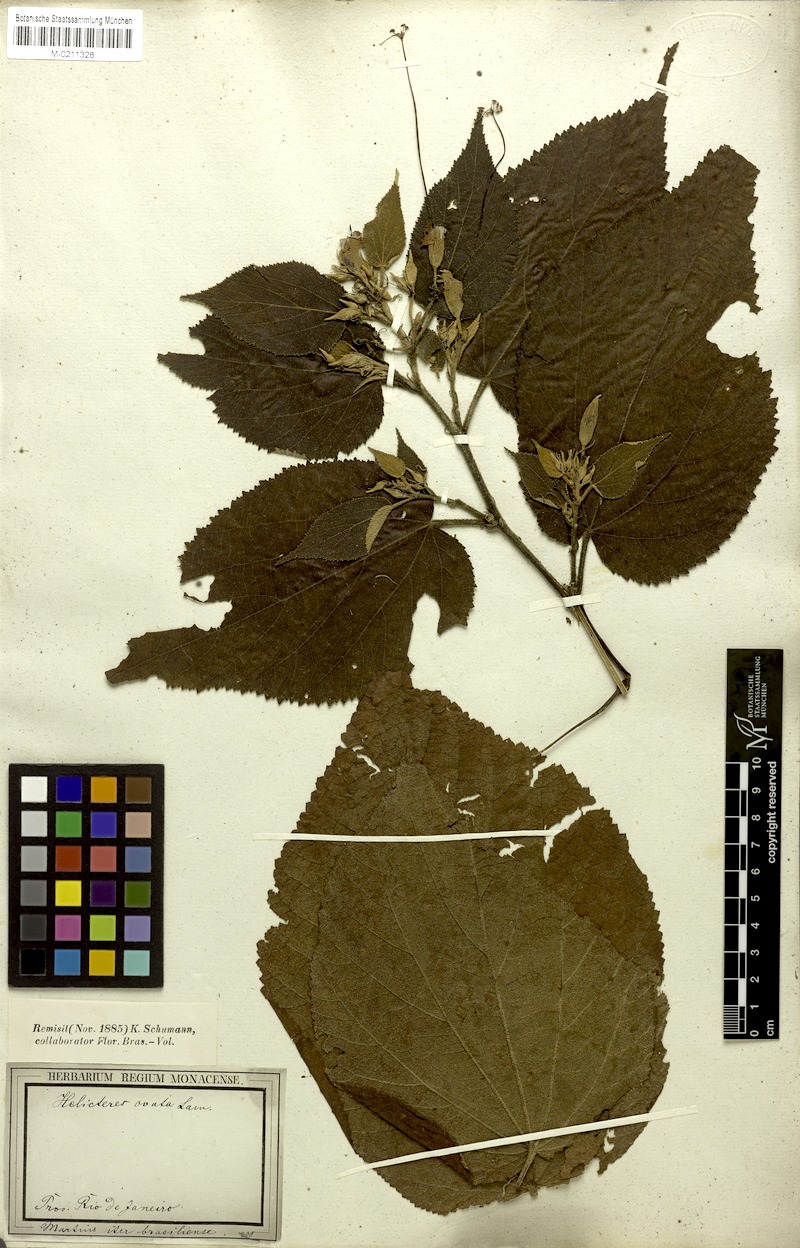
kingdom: Plantae
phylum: Tracheophyta
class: Magnoliopsida
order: Malvales
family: Malvaceae
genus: Helicteres
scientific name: Helicteres ovata
